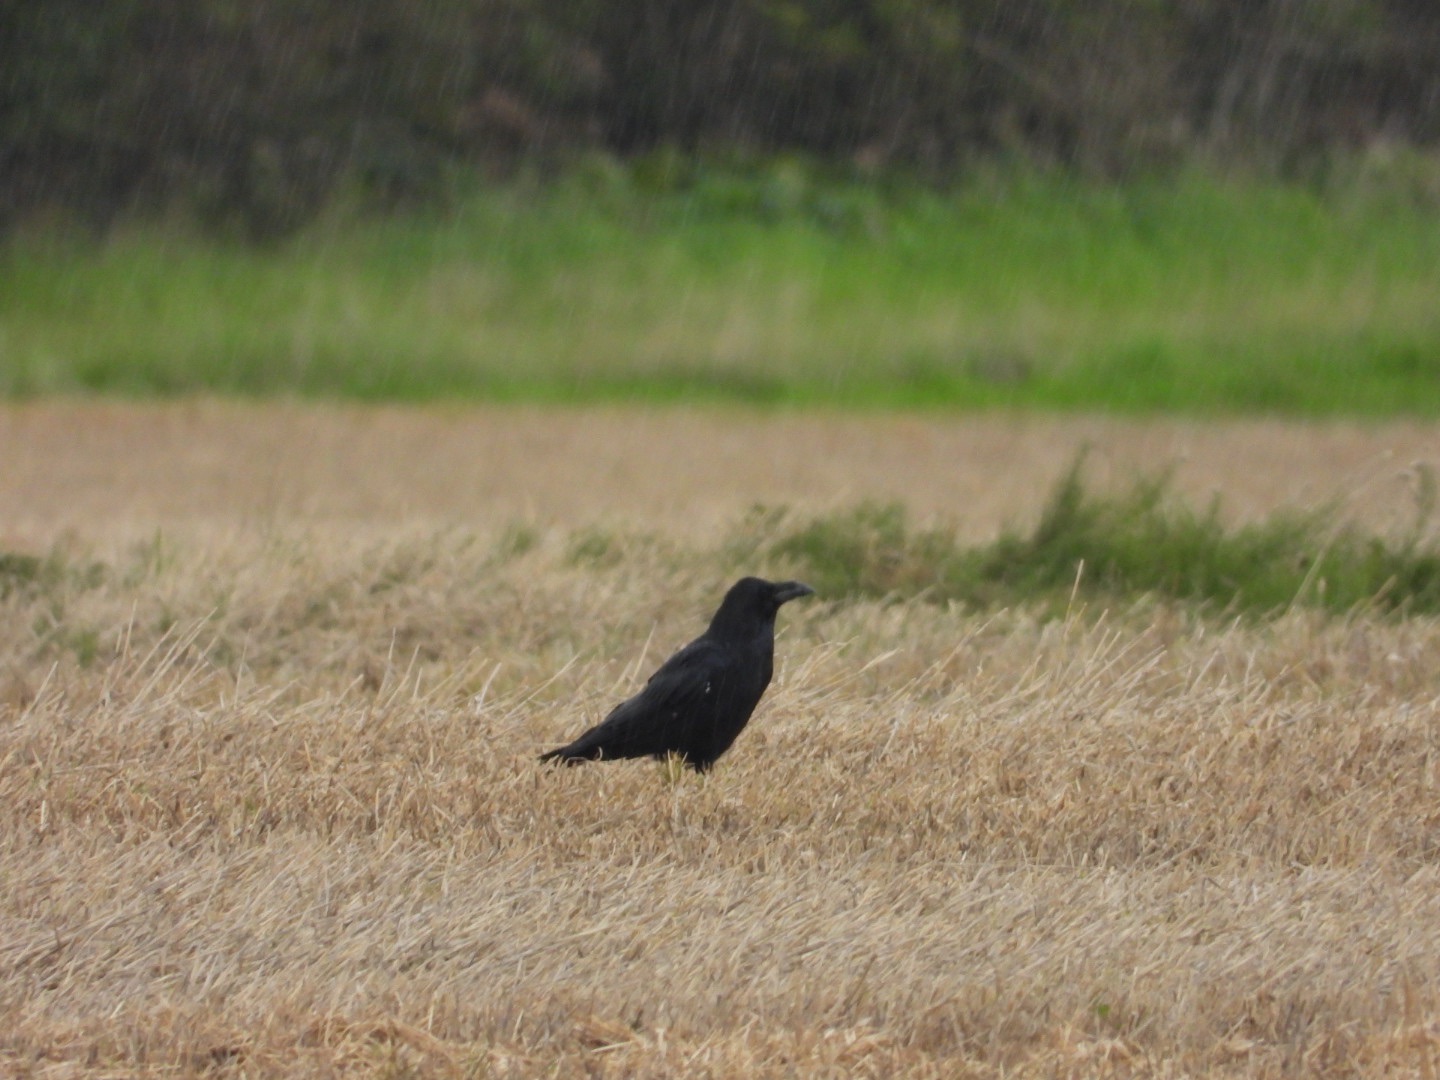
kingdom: Animalia
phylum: Chordata
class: Aves
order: Passeriformes
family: Corvidae
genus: Corvus
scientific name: Corvus corax
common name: Ravn
